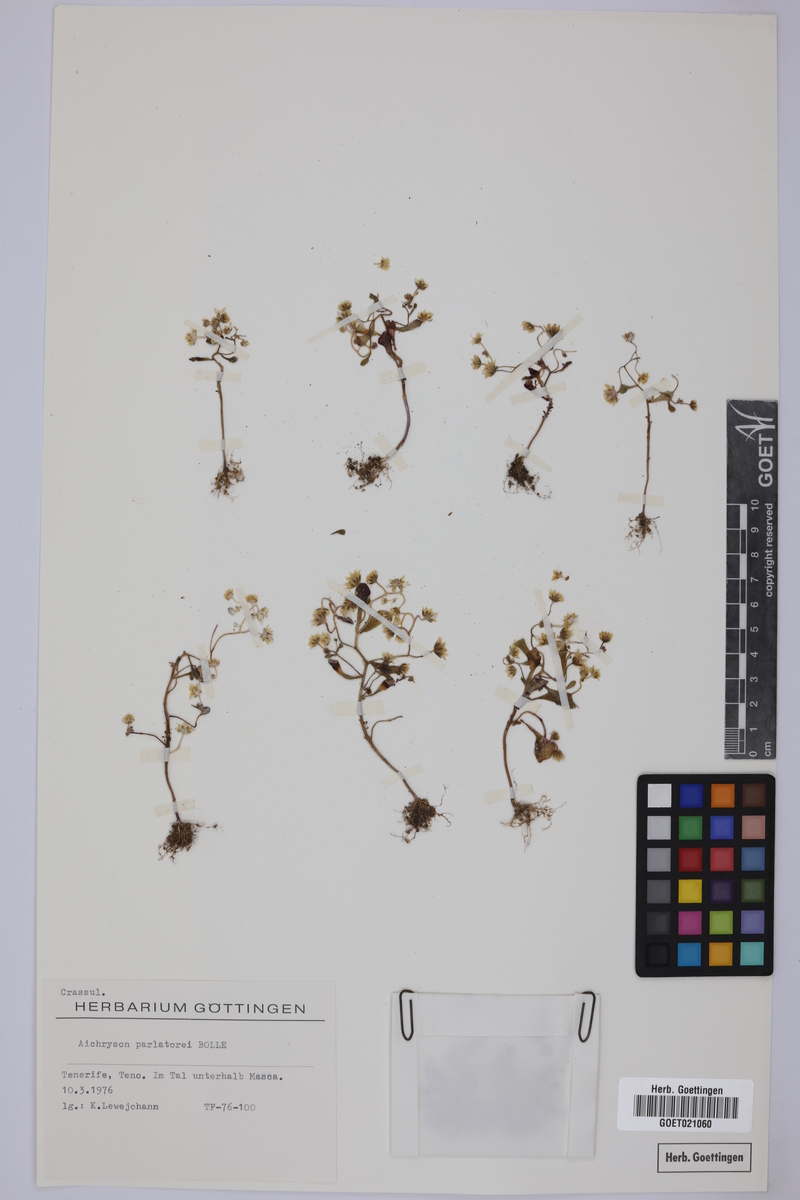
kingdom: Plantae
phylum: Tracheophyta
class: Magnoliopsida
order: Saxifragales
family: Crassulaceae
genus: Aichryson
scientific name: Aichryson parlatorei
